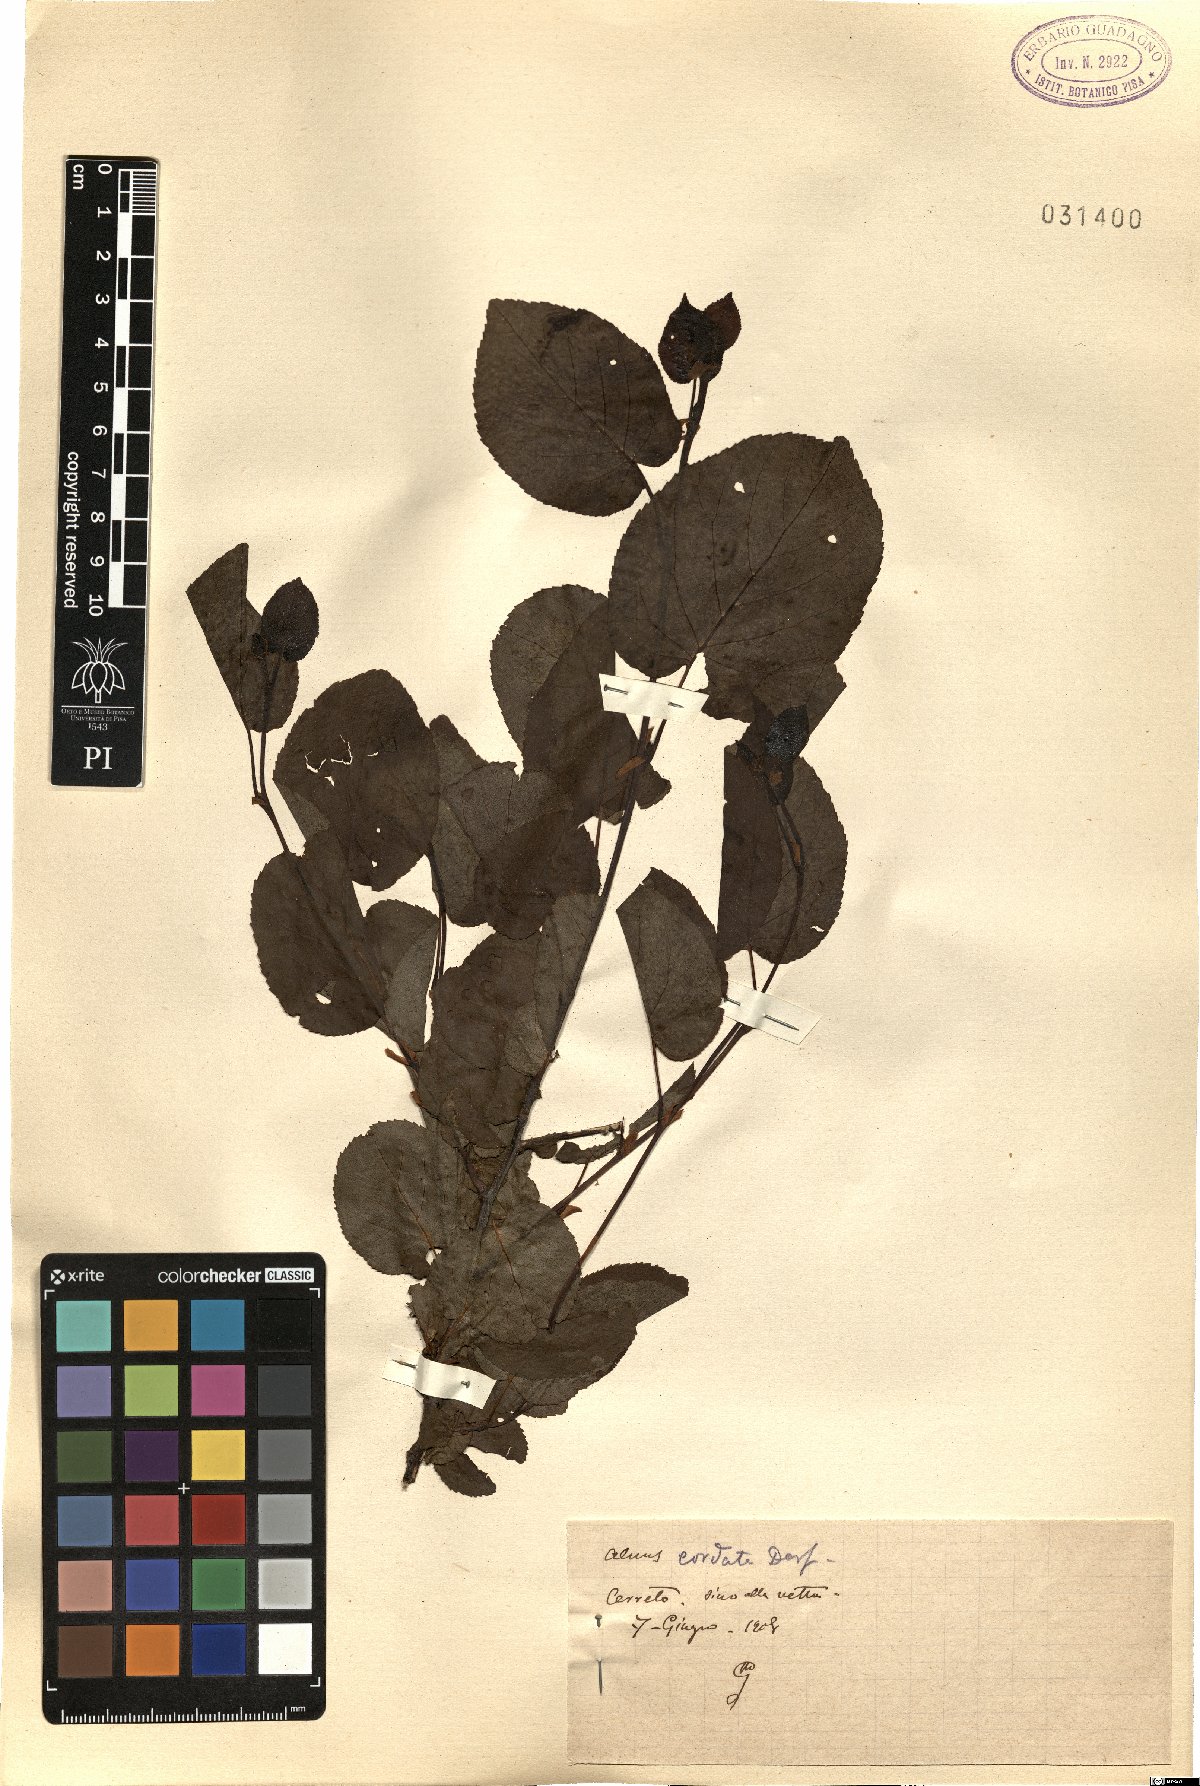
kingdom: Plantae
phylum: Tracheophyta
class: Magnoliopsida
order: Fagales
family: Betulaceae
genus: Alnus
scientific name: Alnus cordata
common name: Italian alder
